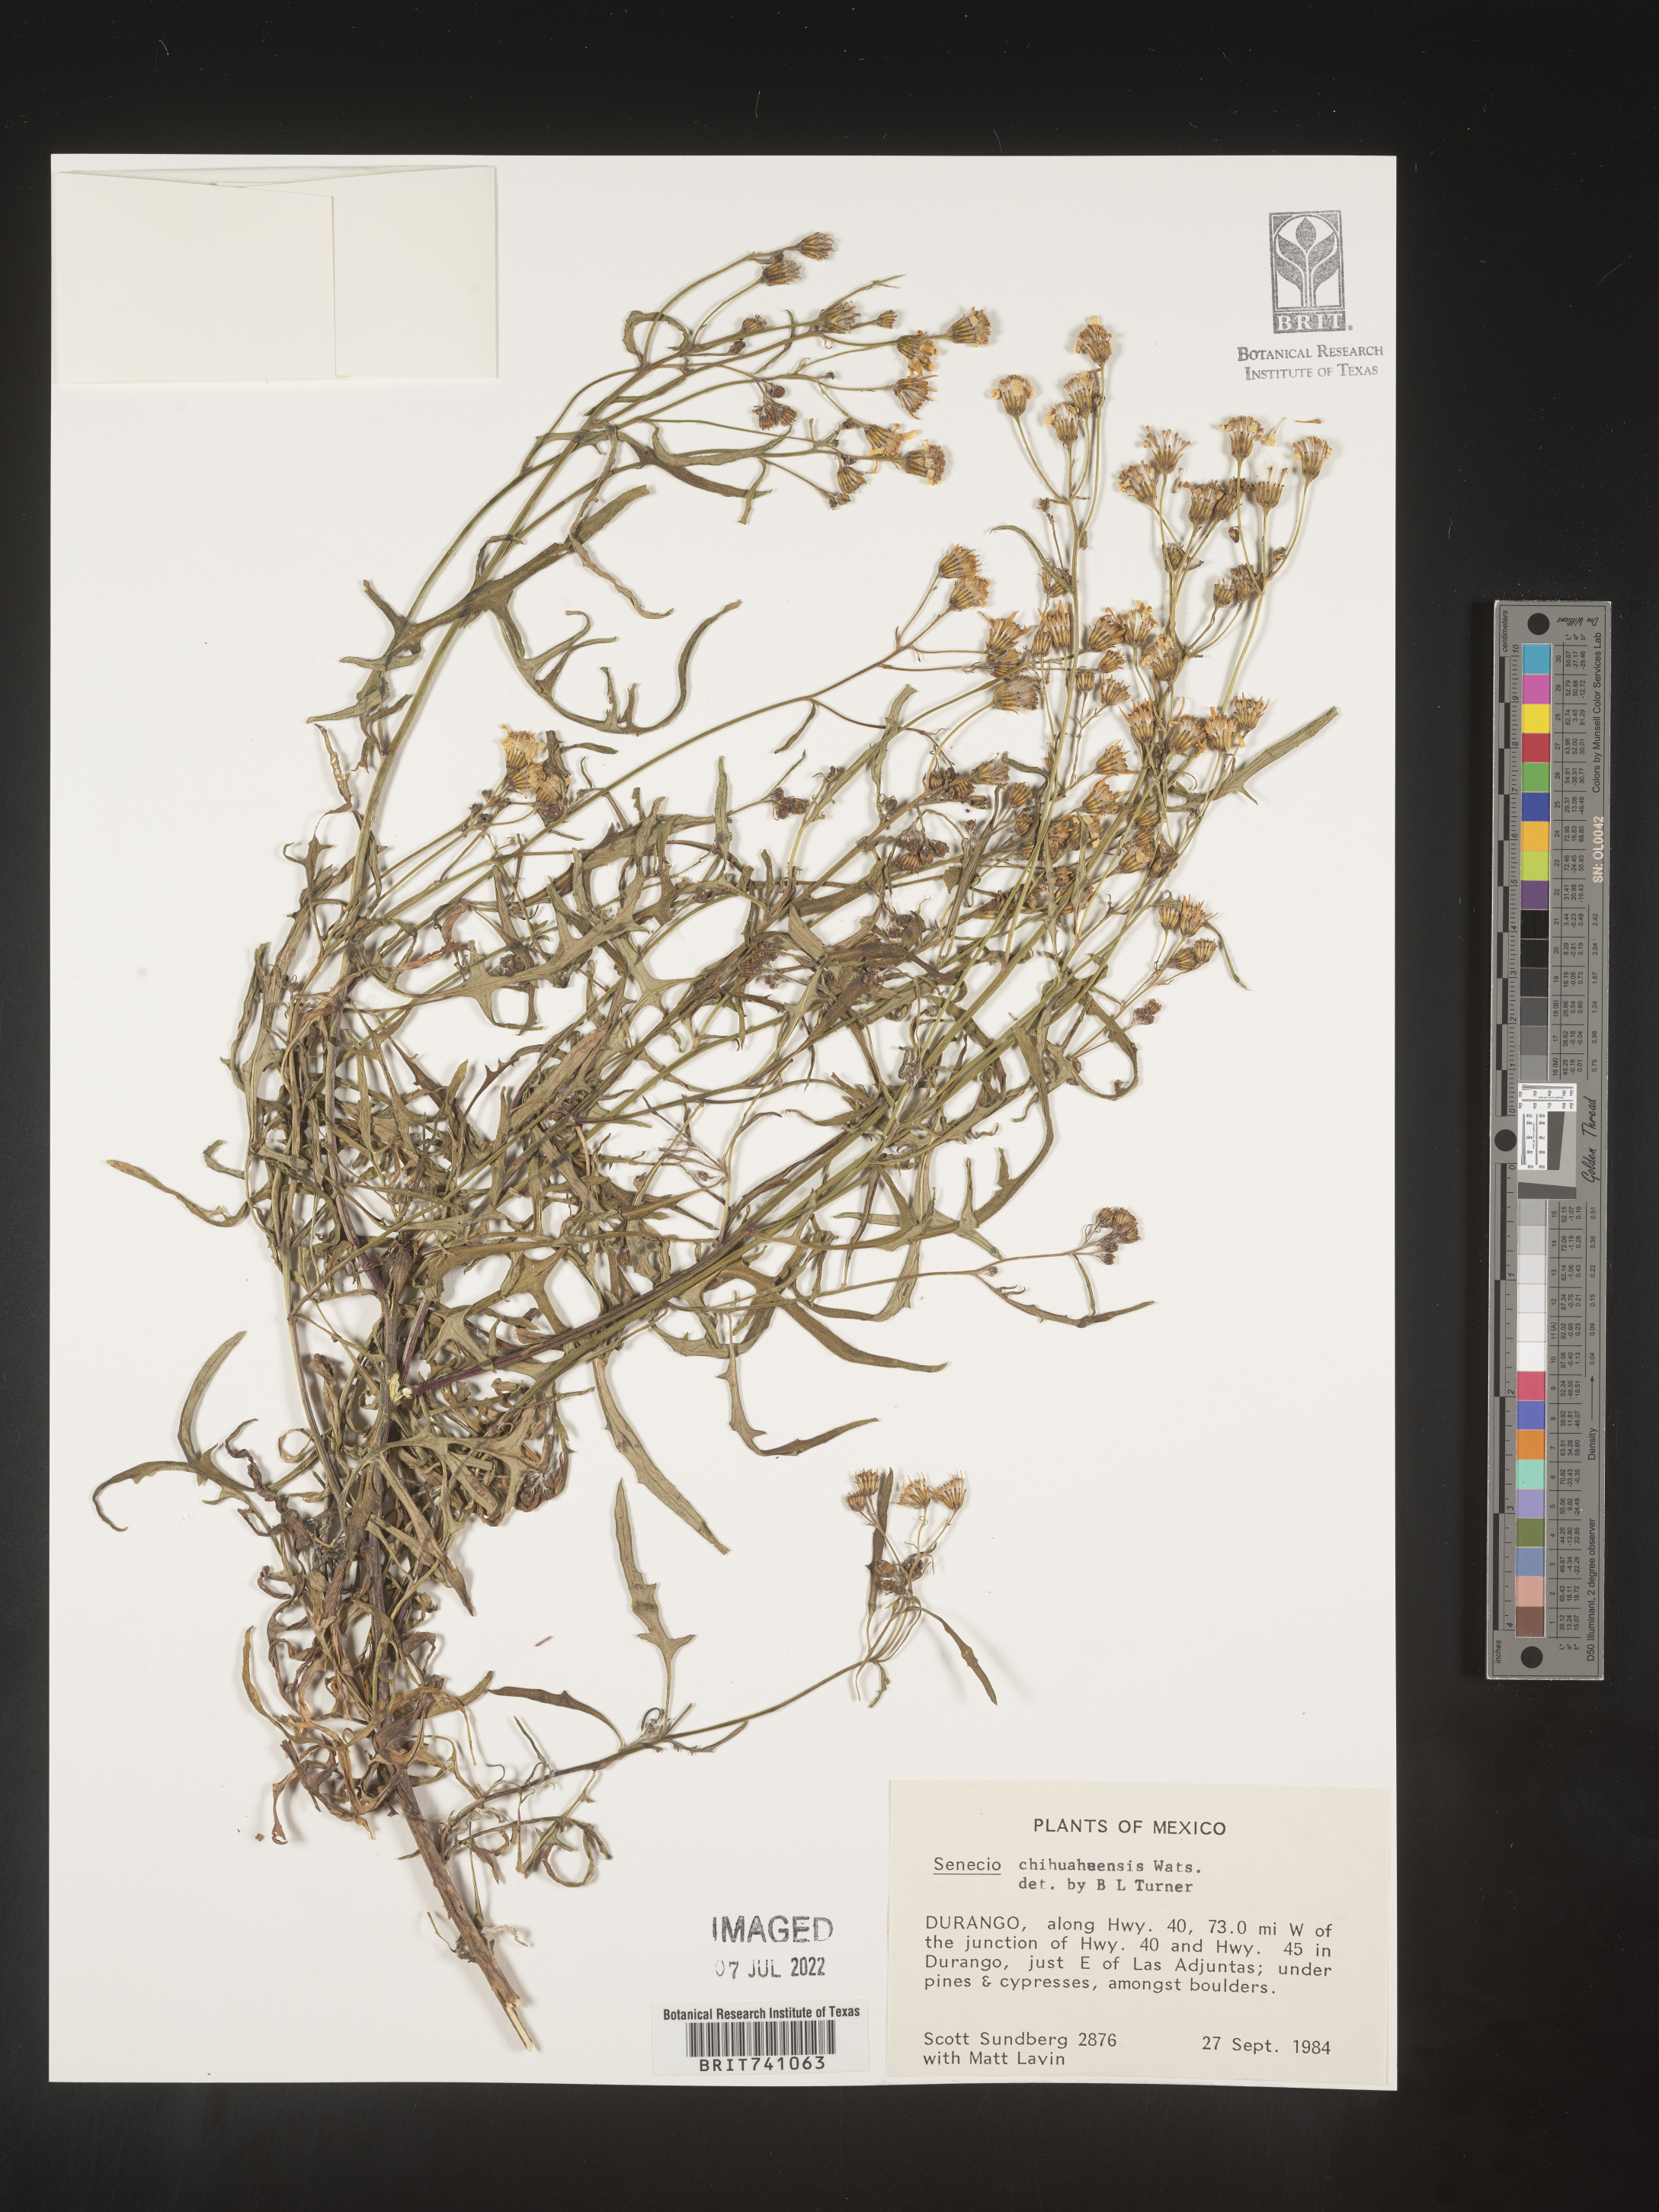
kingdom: Plantae
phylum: Tracheophyta
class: Magnoliopsida
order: Asterales
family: Asteraceae
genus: Senecio
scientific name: Senecio
